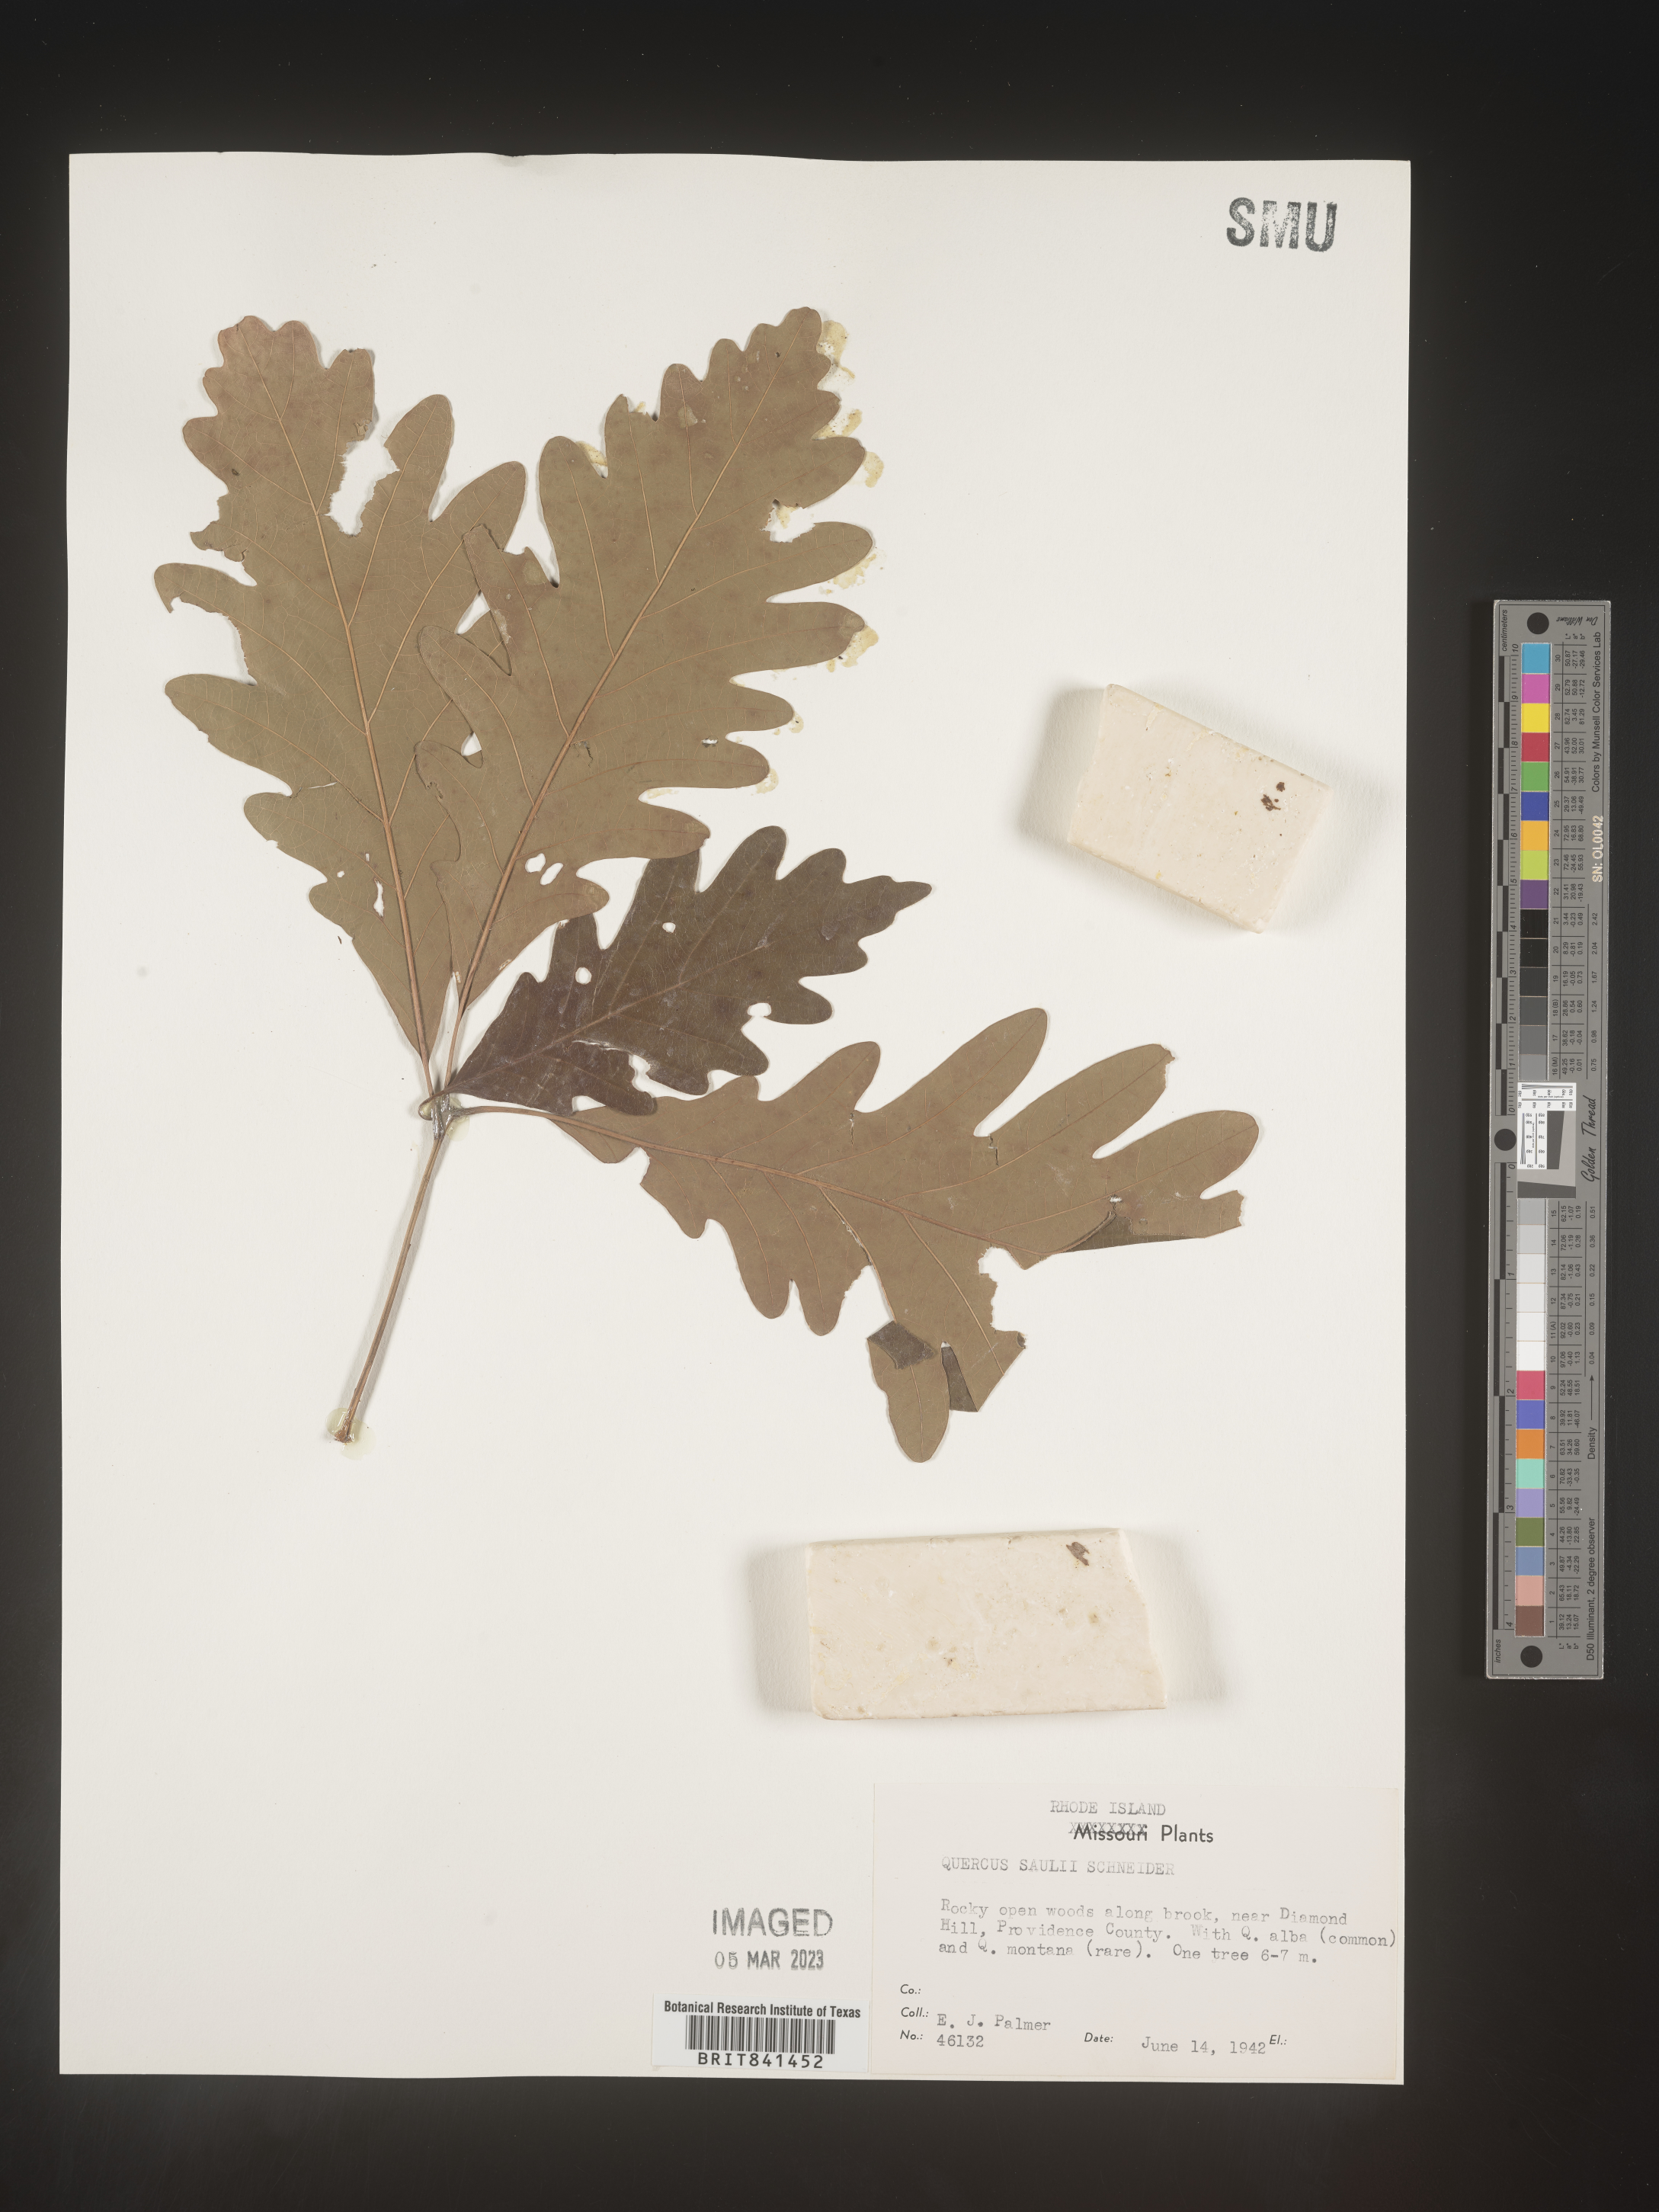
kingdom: Plantae
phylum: Tracheophyta
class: Magnoliopsida
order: Fagales
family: Fagaceae
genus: Quercus
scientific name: Quercus saulii
